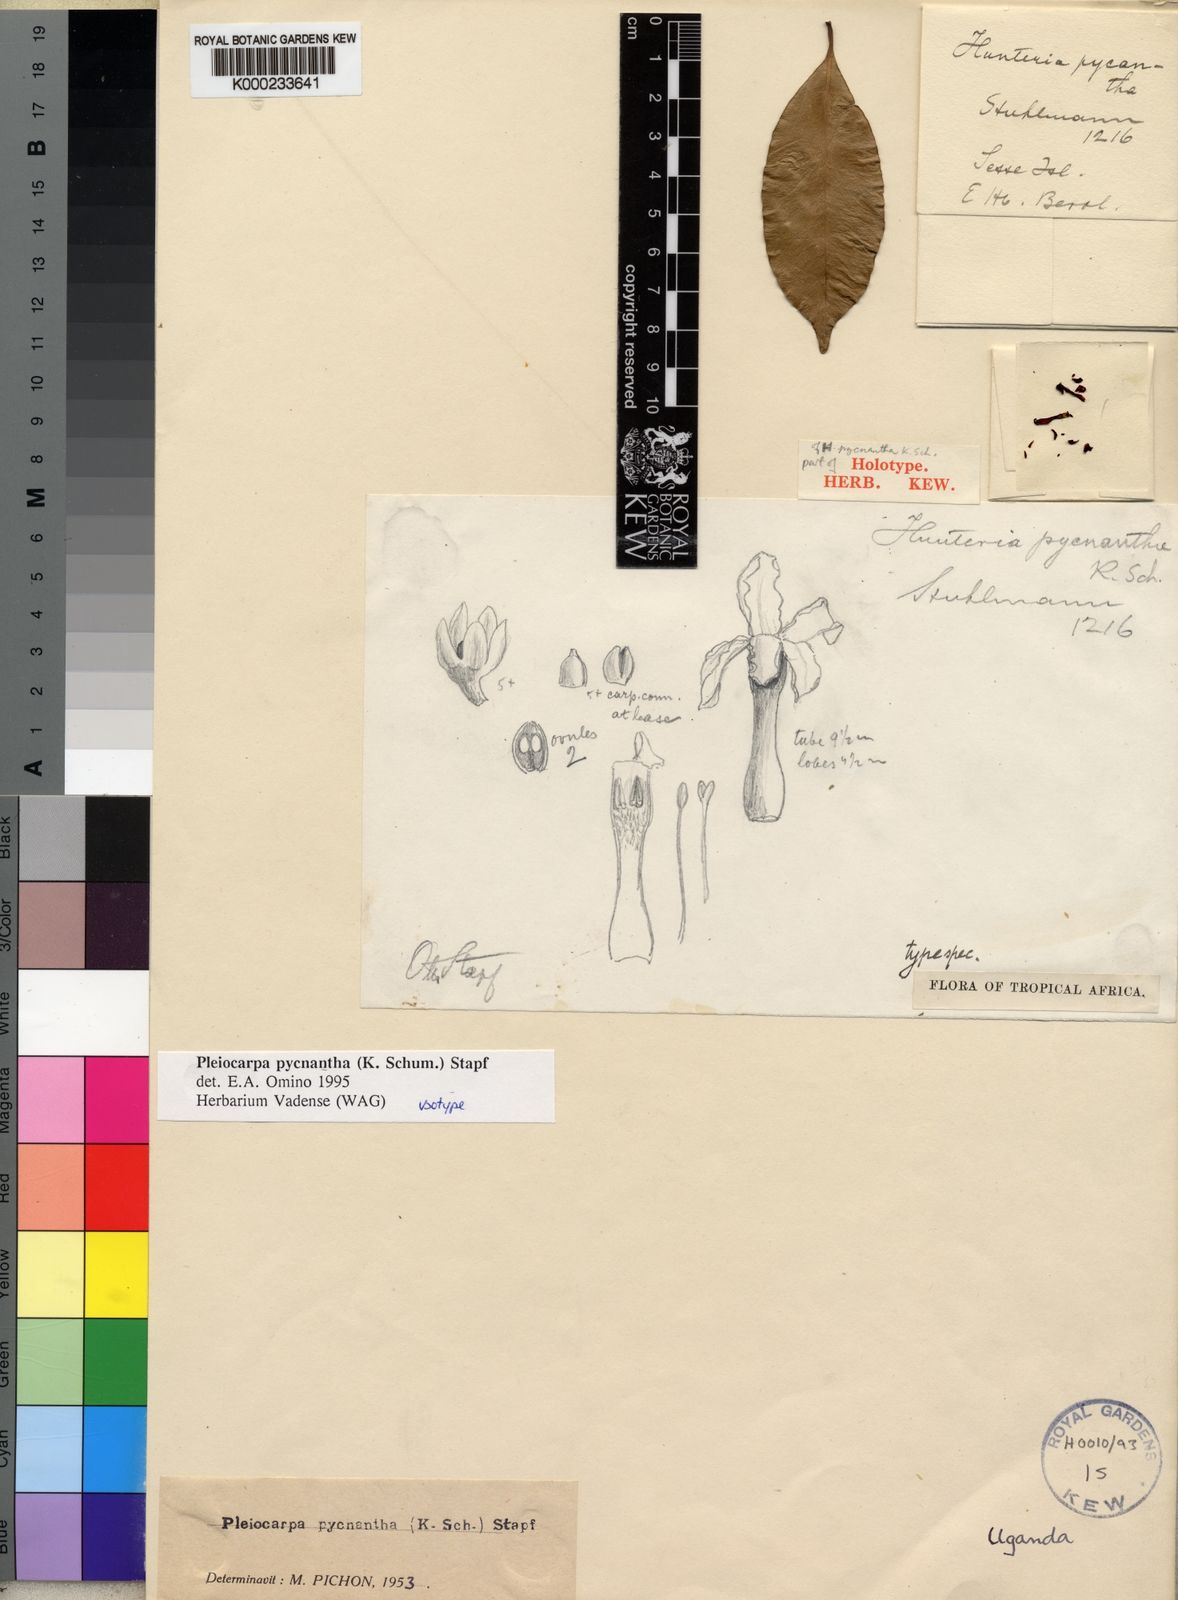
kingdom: Plantae
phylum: Tracheophyta
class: Magnoliopsida
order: Gentianales
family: Apocynaceae
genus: Pleiocarpa
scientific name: Pleiocarpa pycnantha
